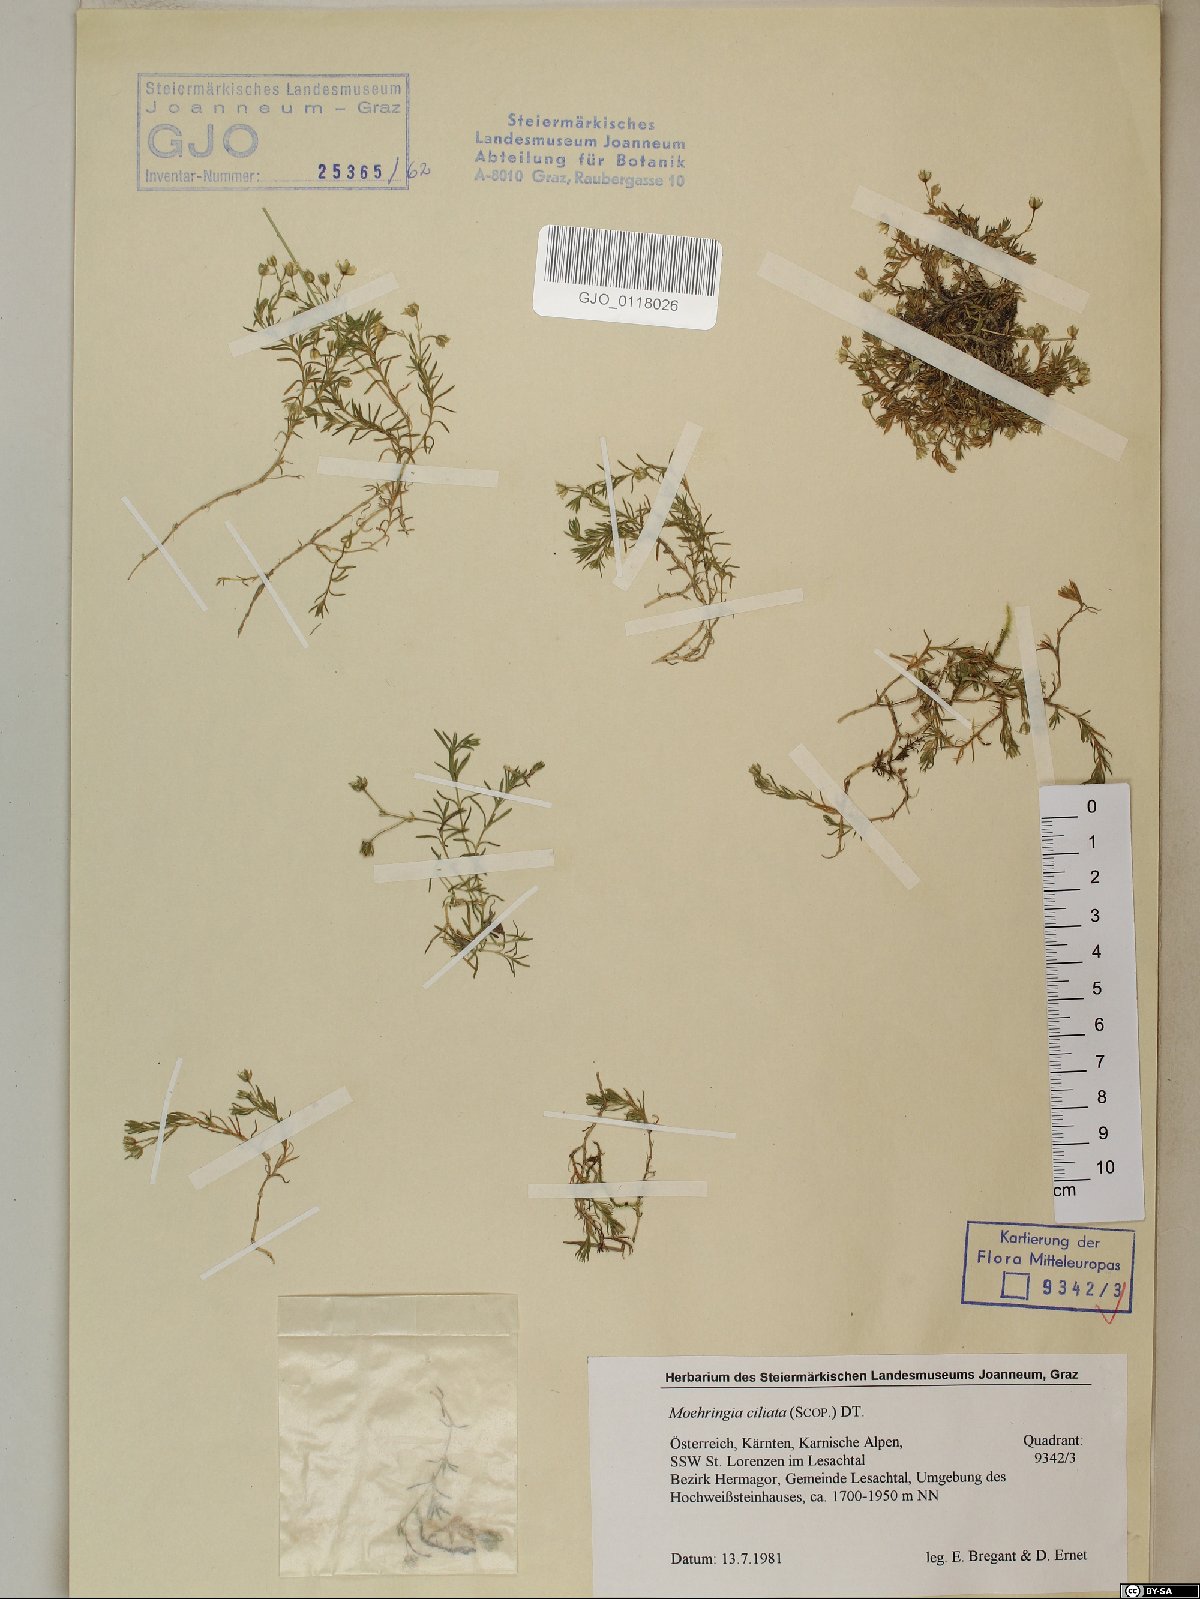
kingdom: Plantae
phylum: Tracheophyta
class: Magnoliopsida
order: Caryophyllales
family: Caryophyllaceae
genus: Moehringia
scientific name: Moehringia ciliata
